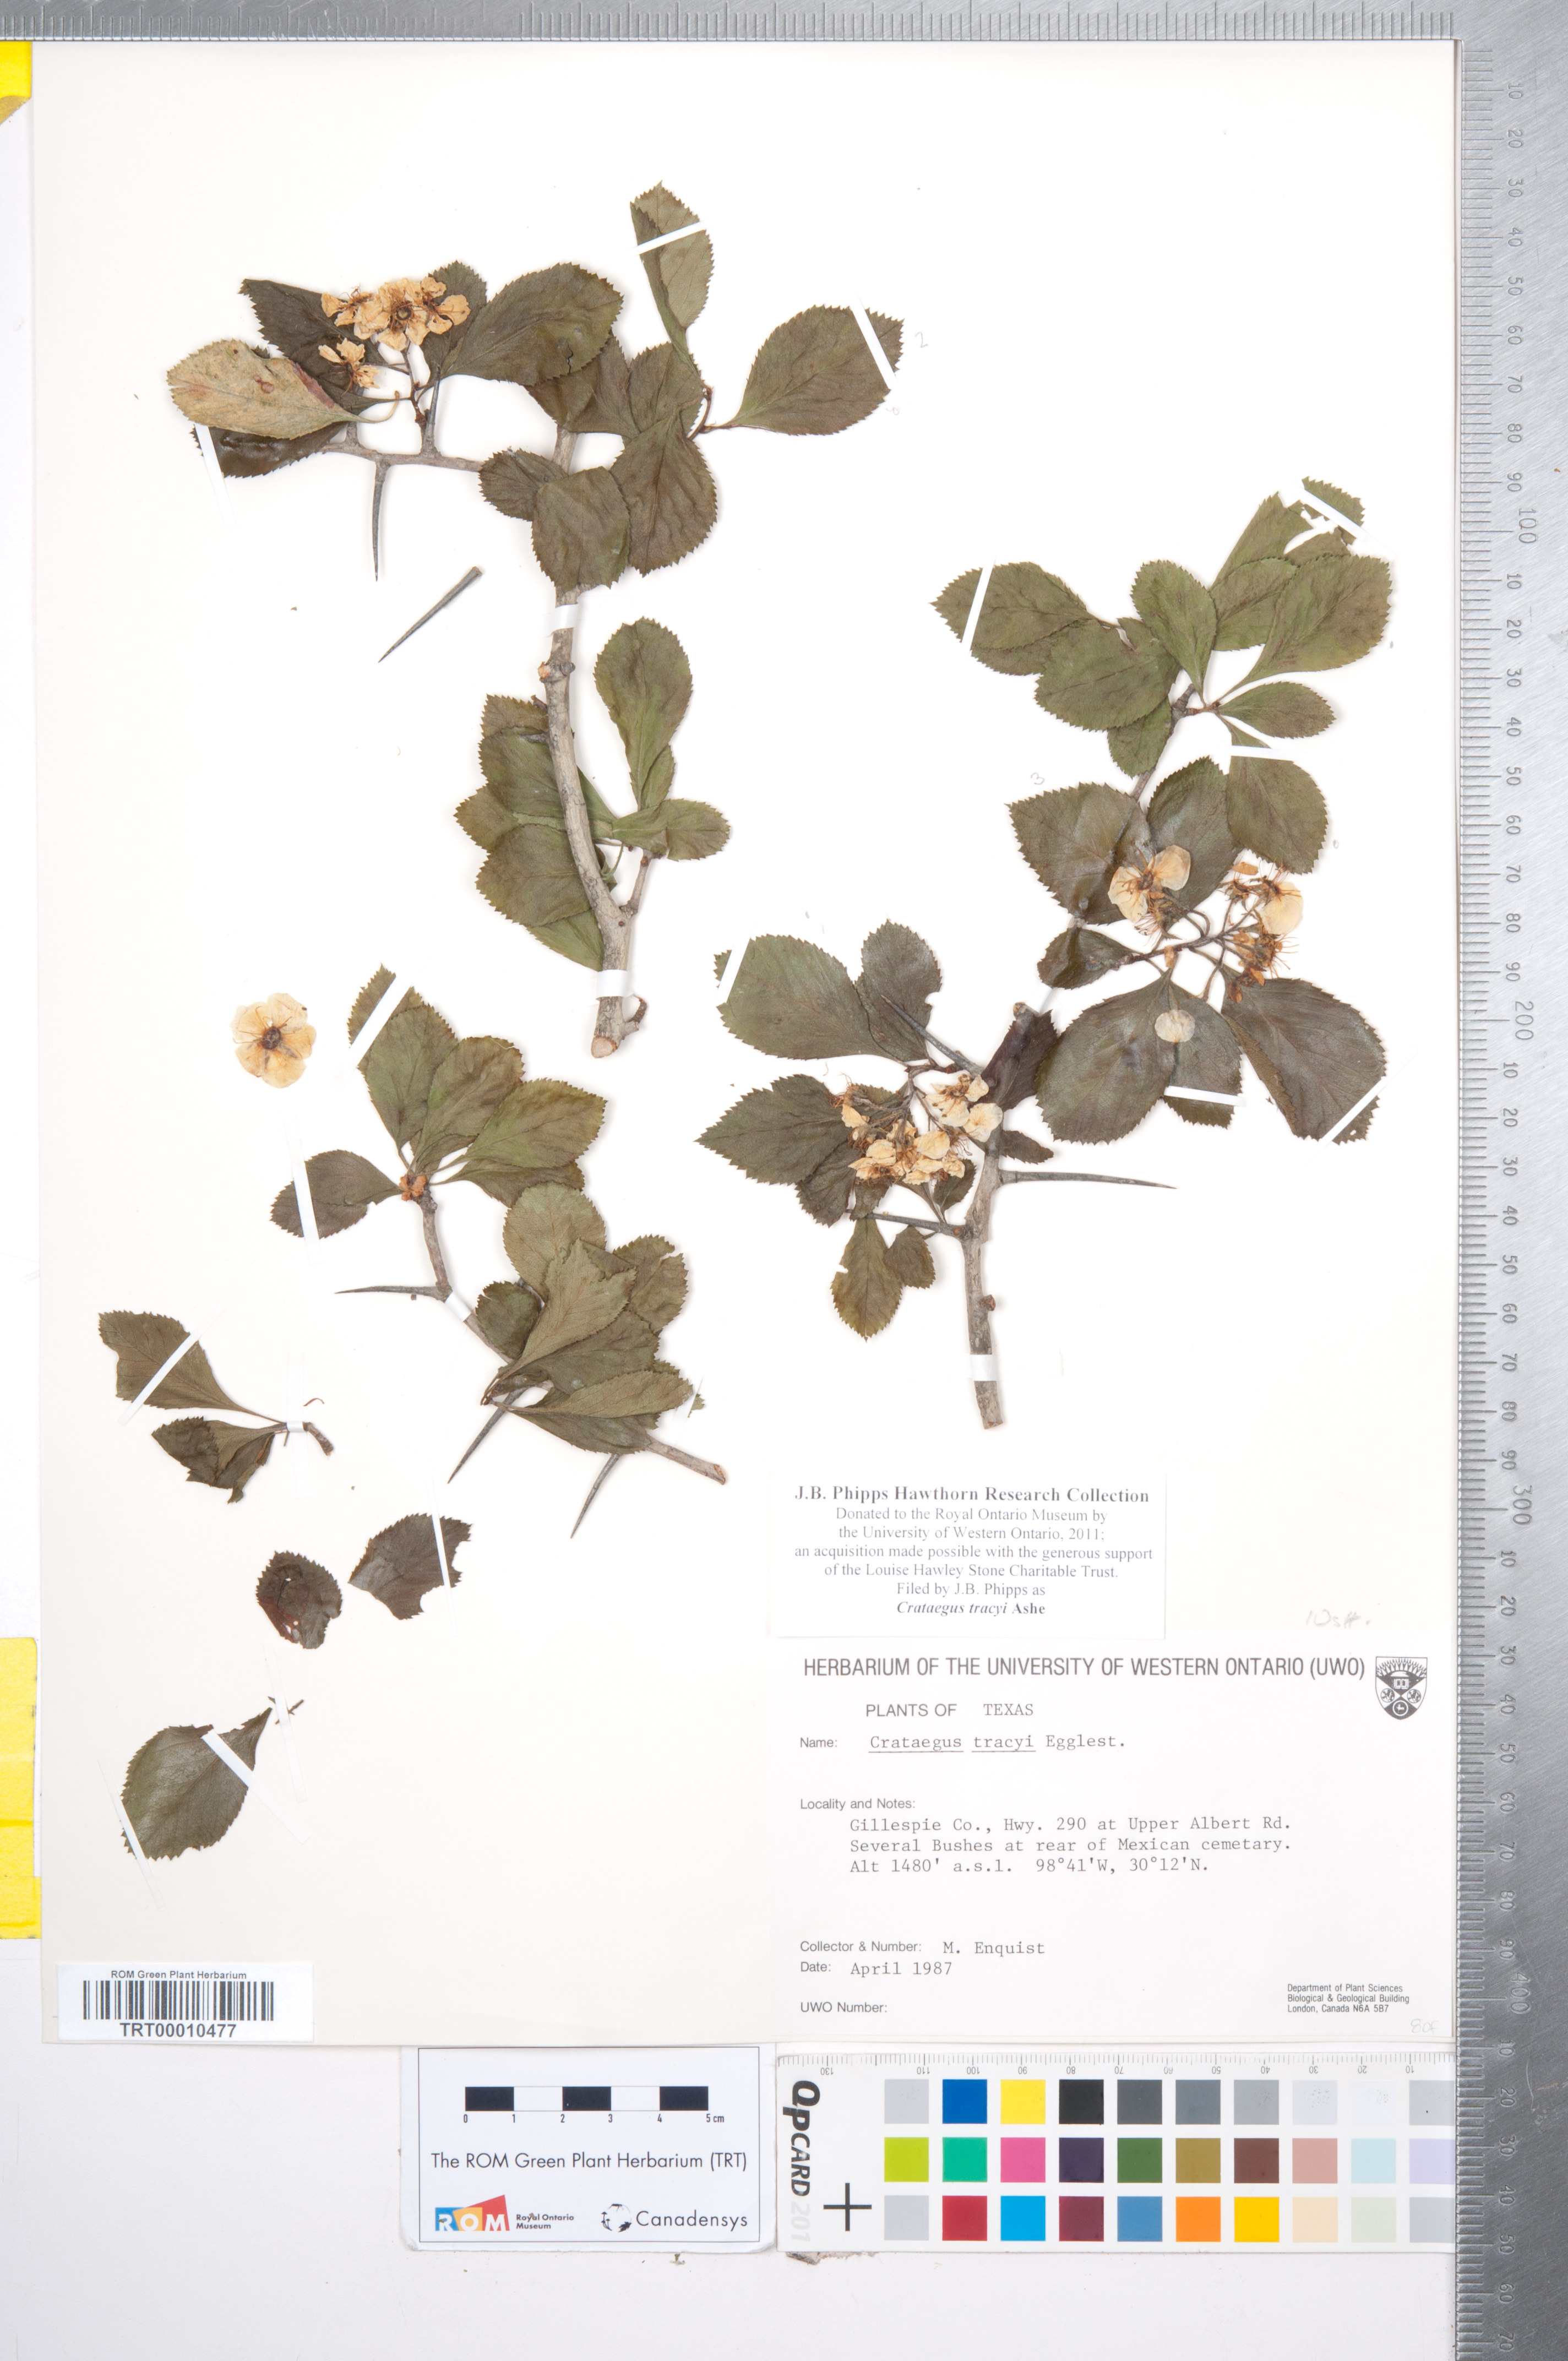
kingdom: Plantae
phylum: Tracheophyta
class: Magnoliopsida
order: Rosales
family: Rosaceae
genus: Crataegus
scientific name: Crataegus tracyi
